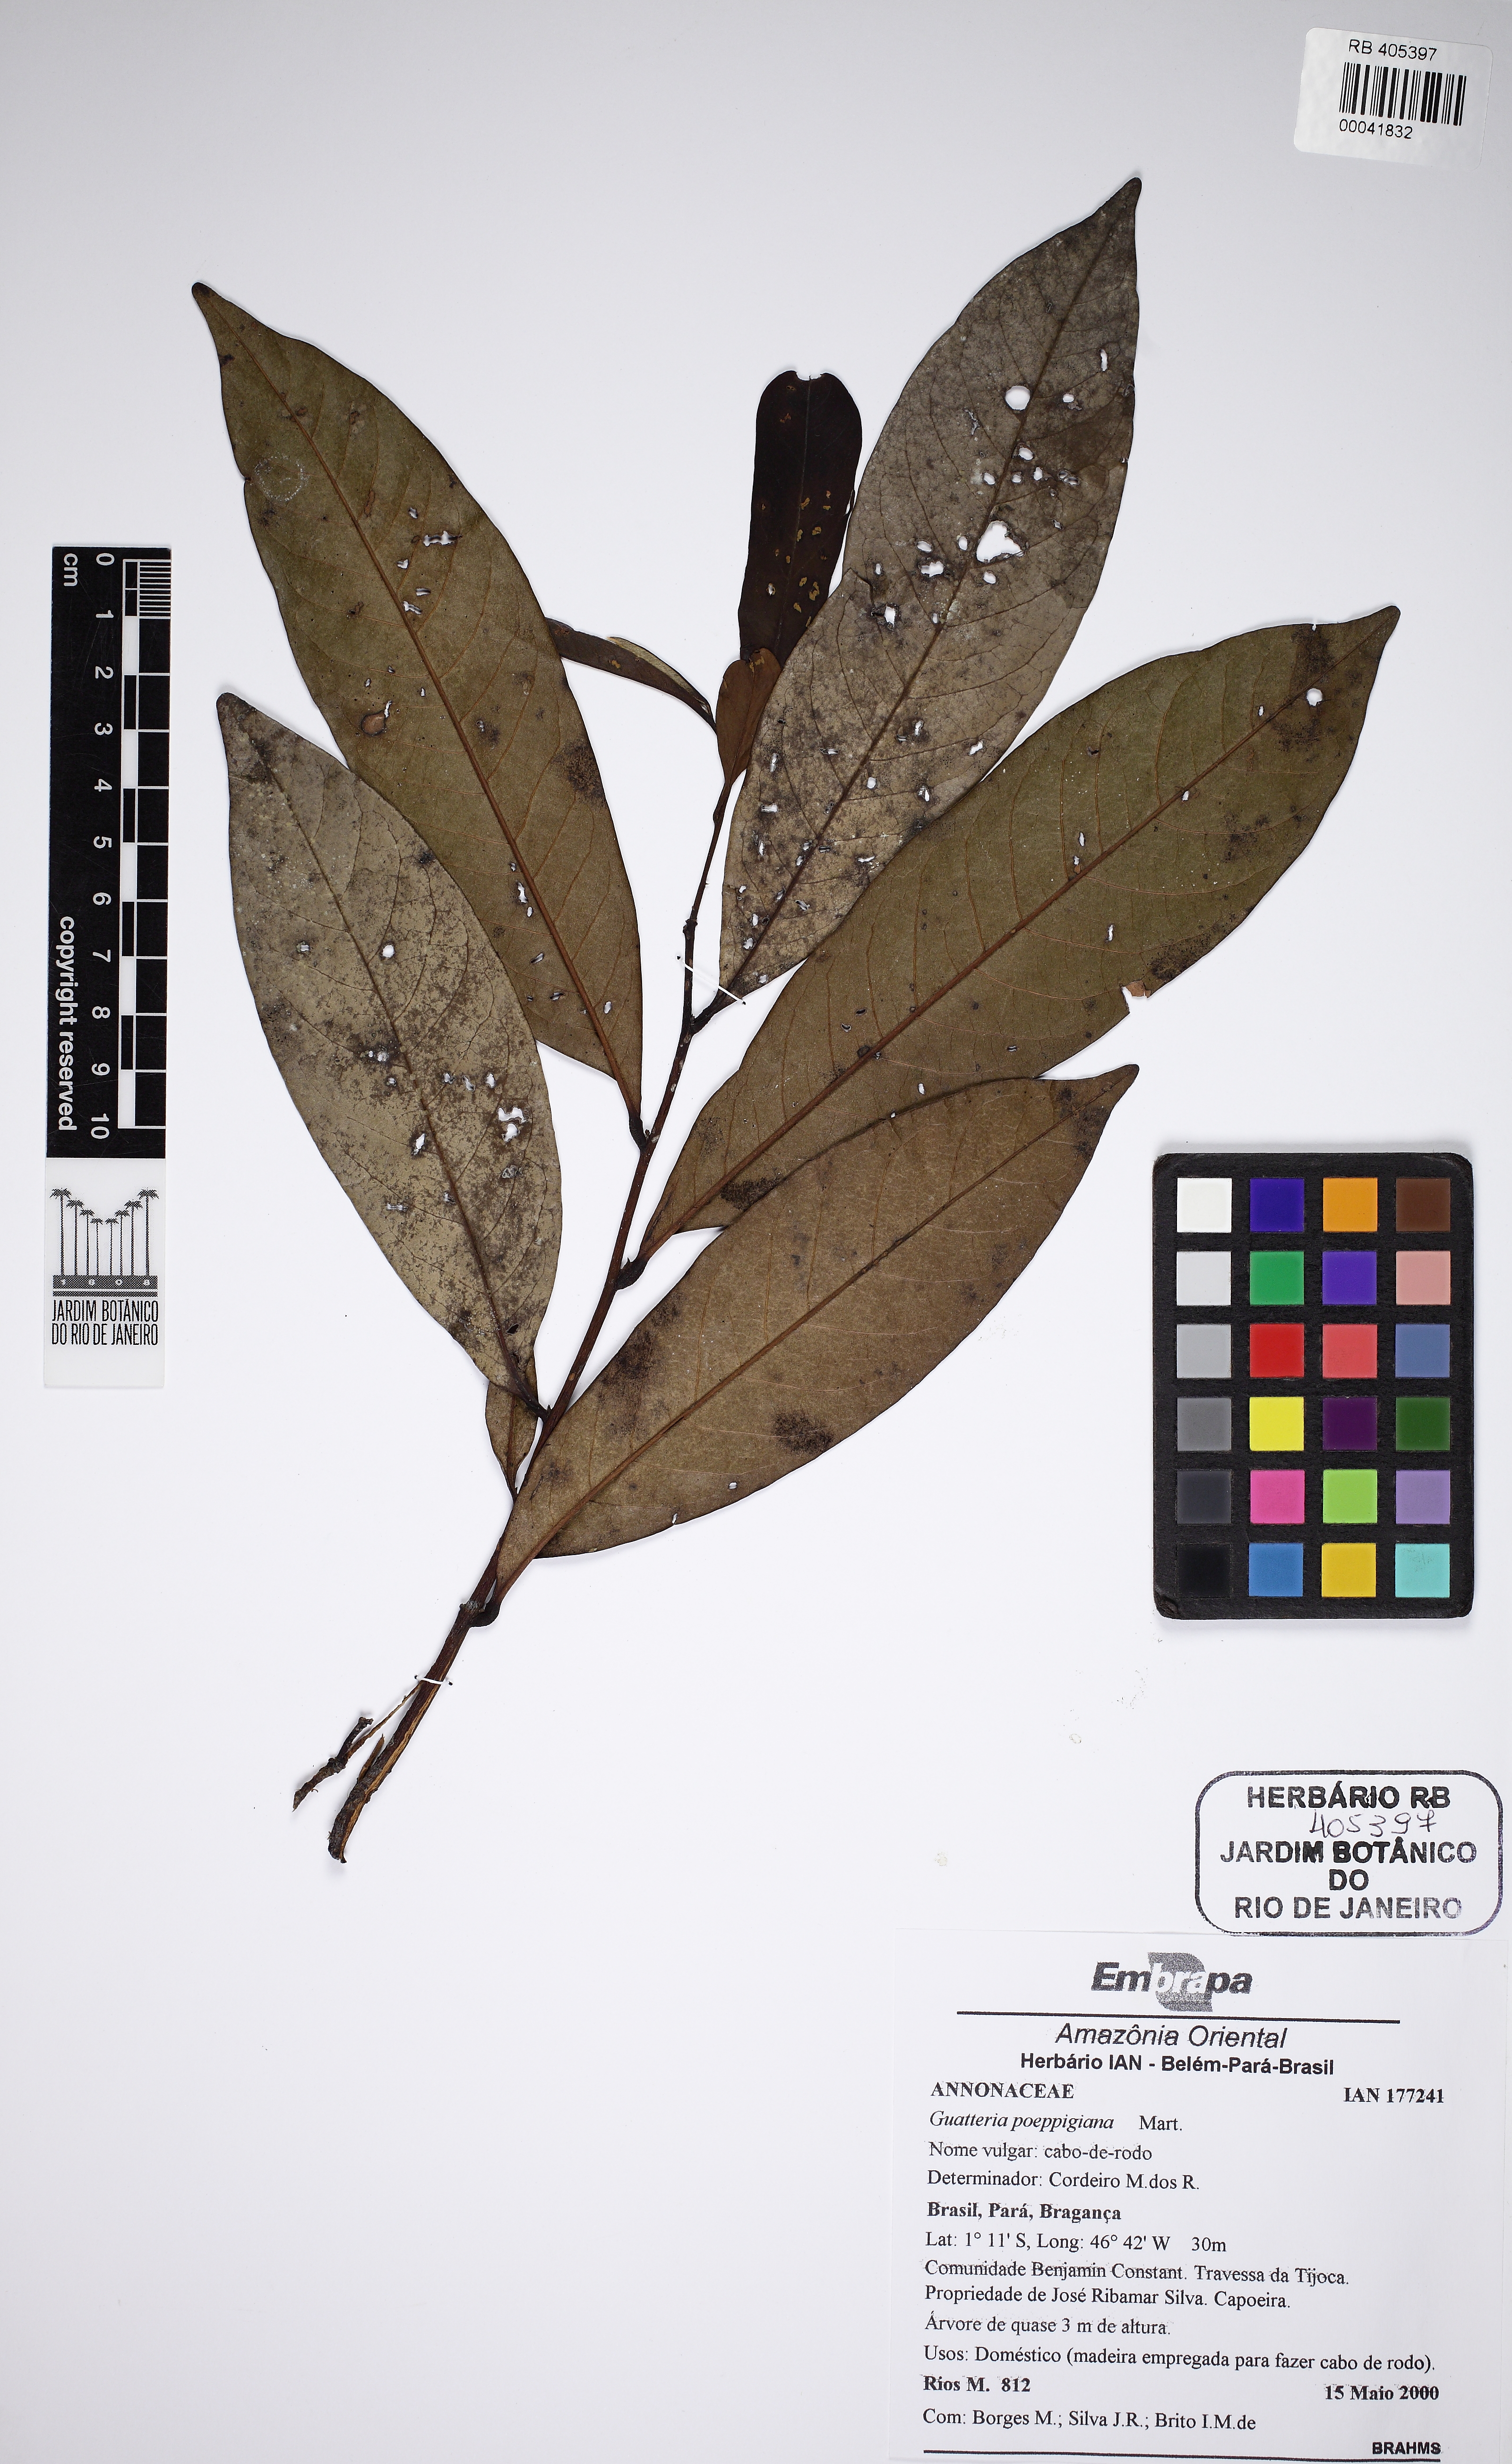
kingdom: Plantae
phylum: Tracheophyta
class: Magnoliopsida
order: Magnoliales
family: Annonaceae
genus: Guatteria
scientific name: Guatteria poeppigiana
